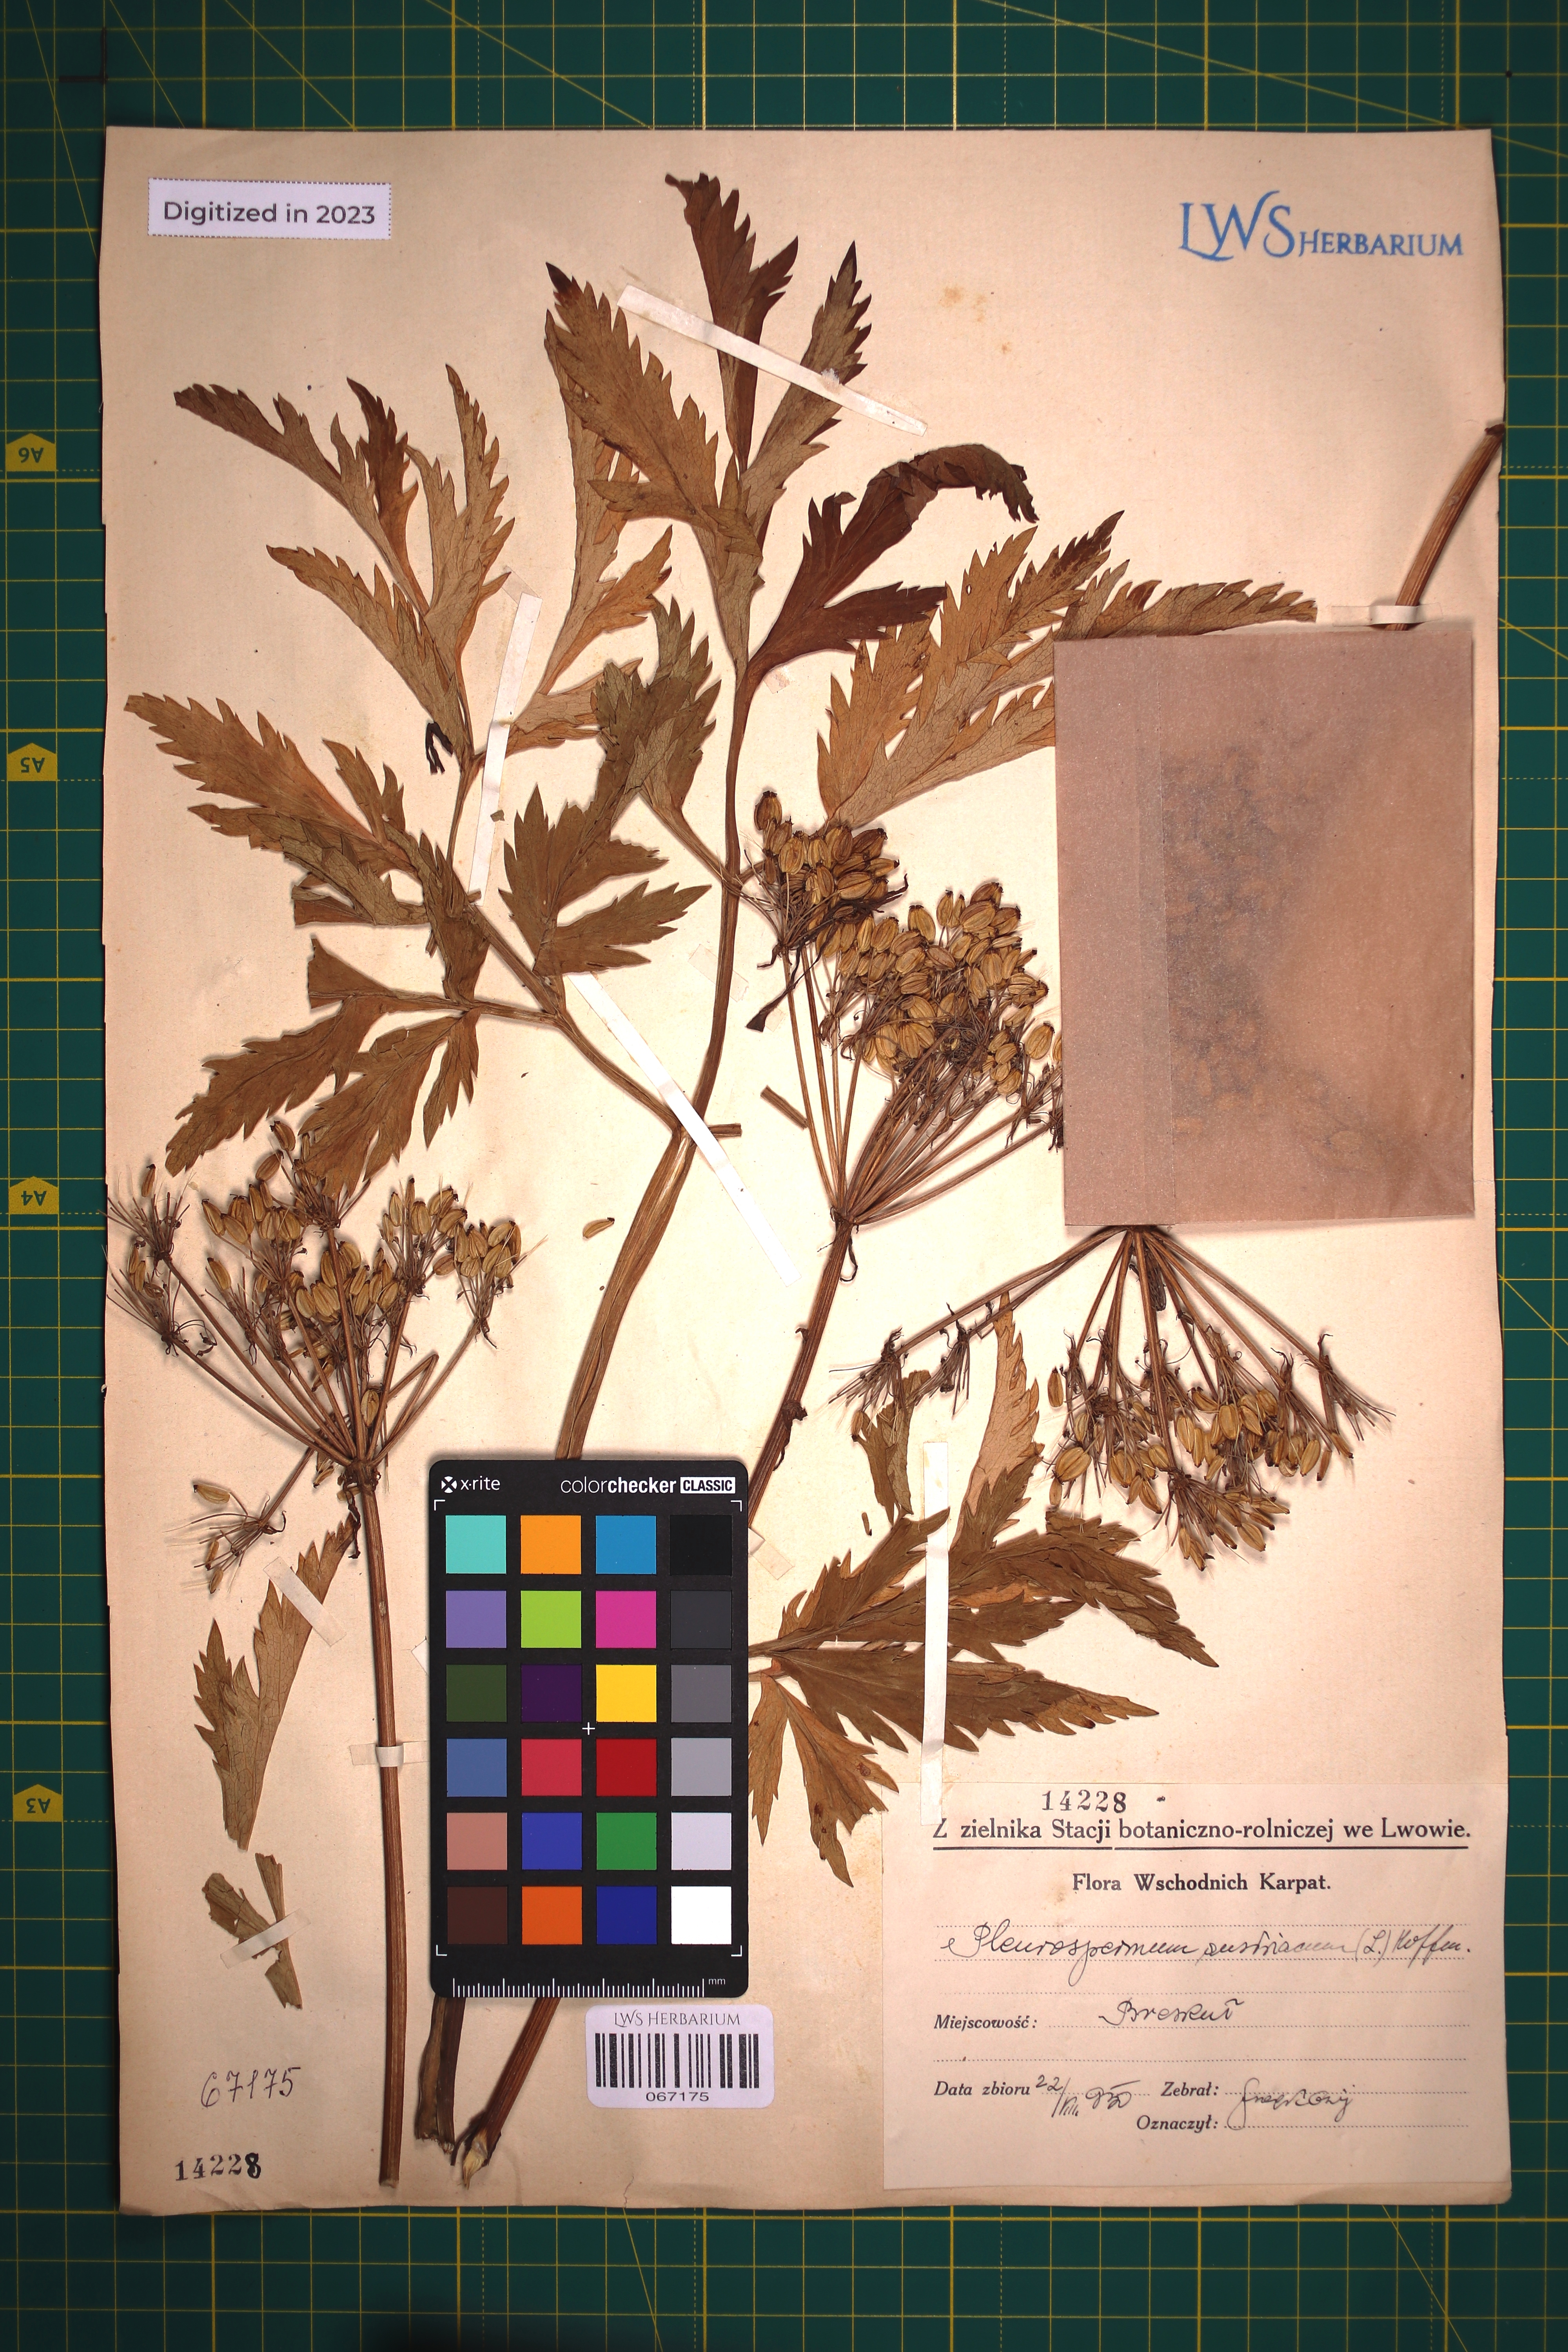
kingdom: Plantae
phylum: Tracheophyta
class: Magnoliopsida
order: Apiales
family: Apiaceae
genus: Pleurospermum
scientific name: Pleurospermum austriacum
